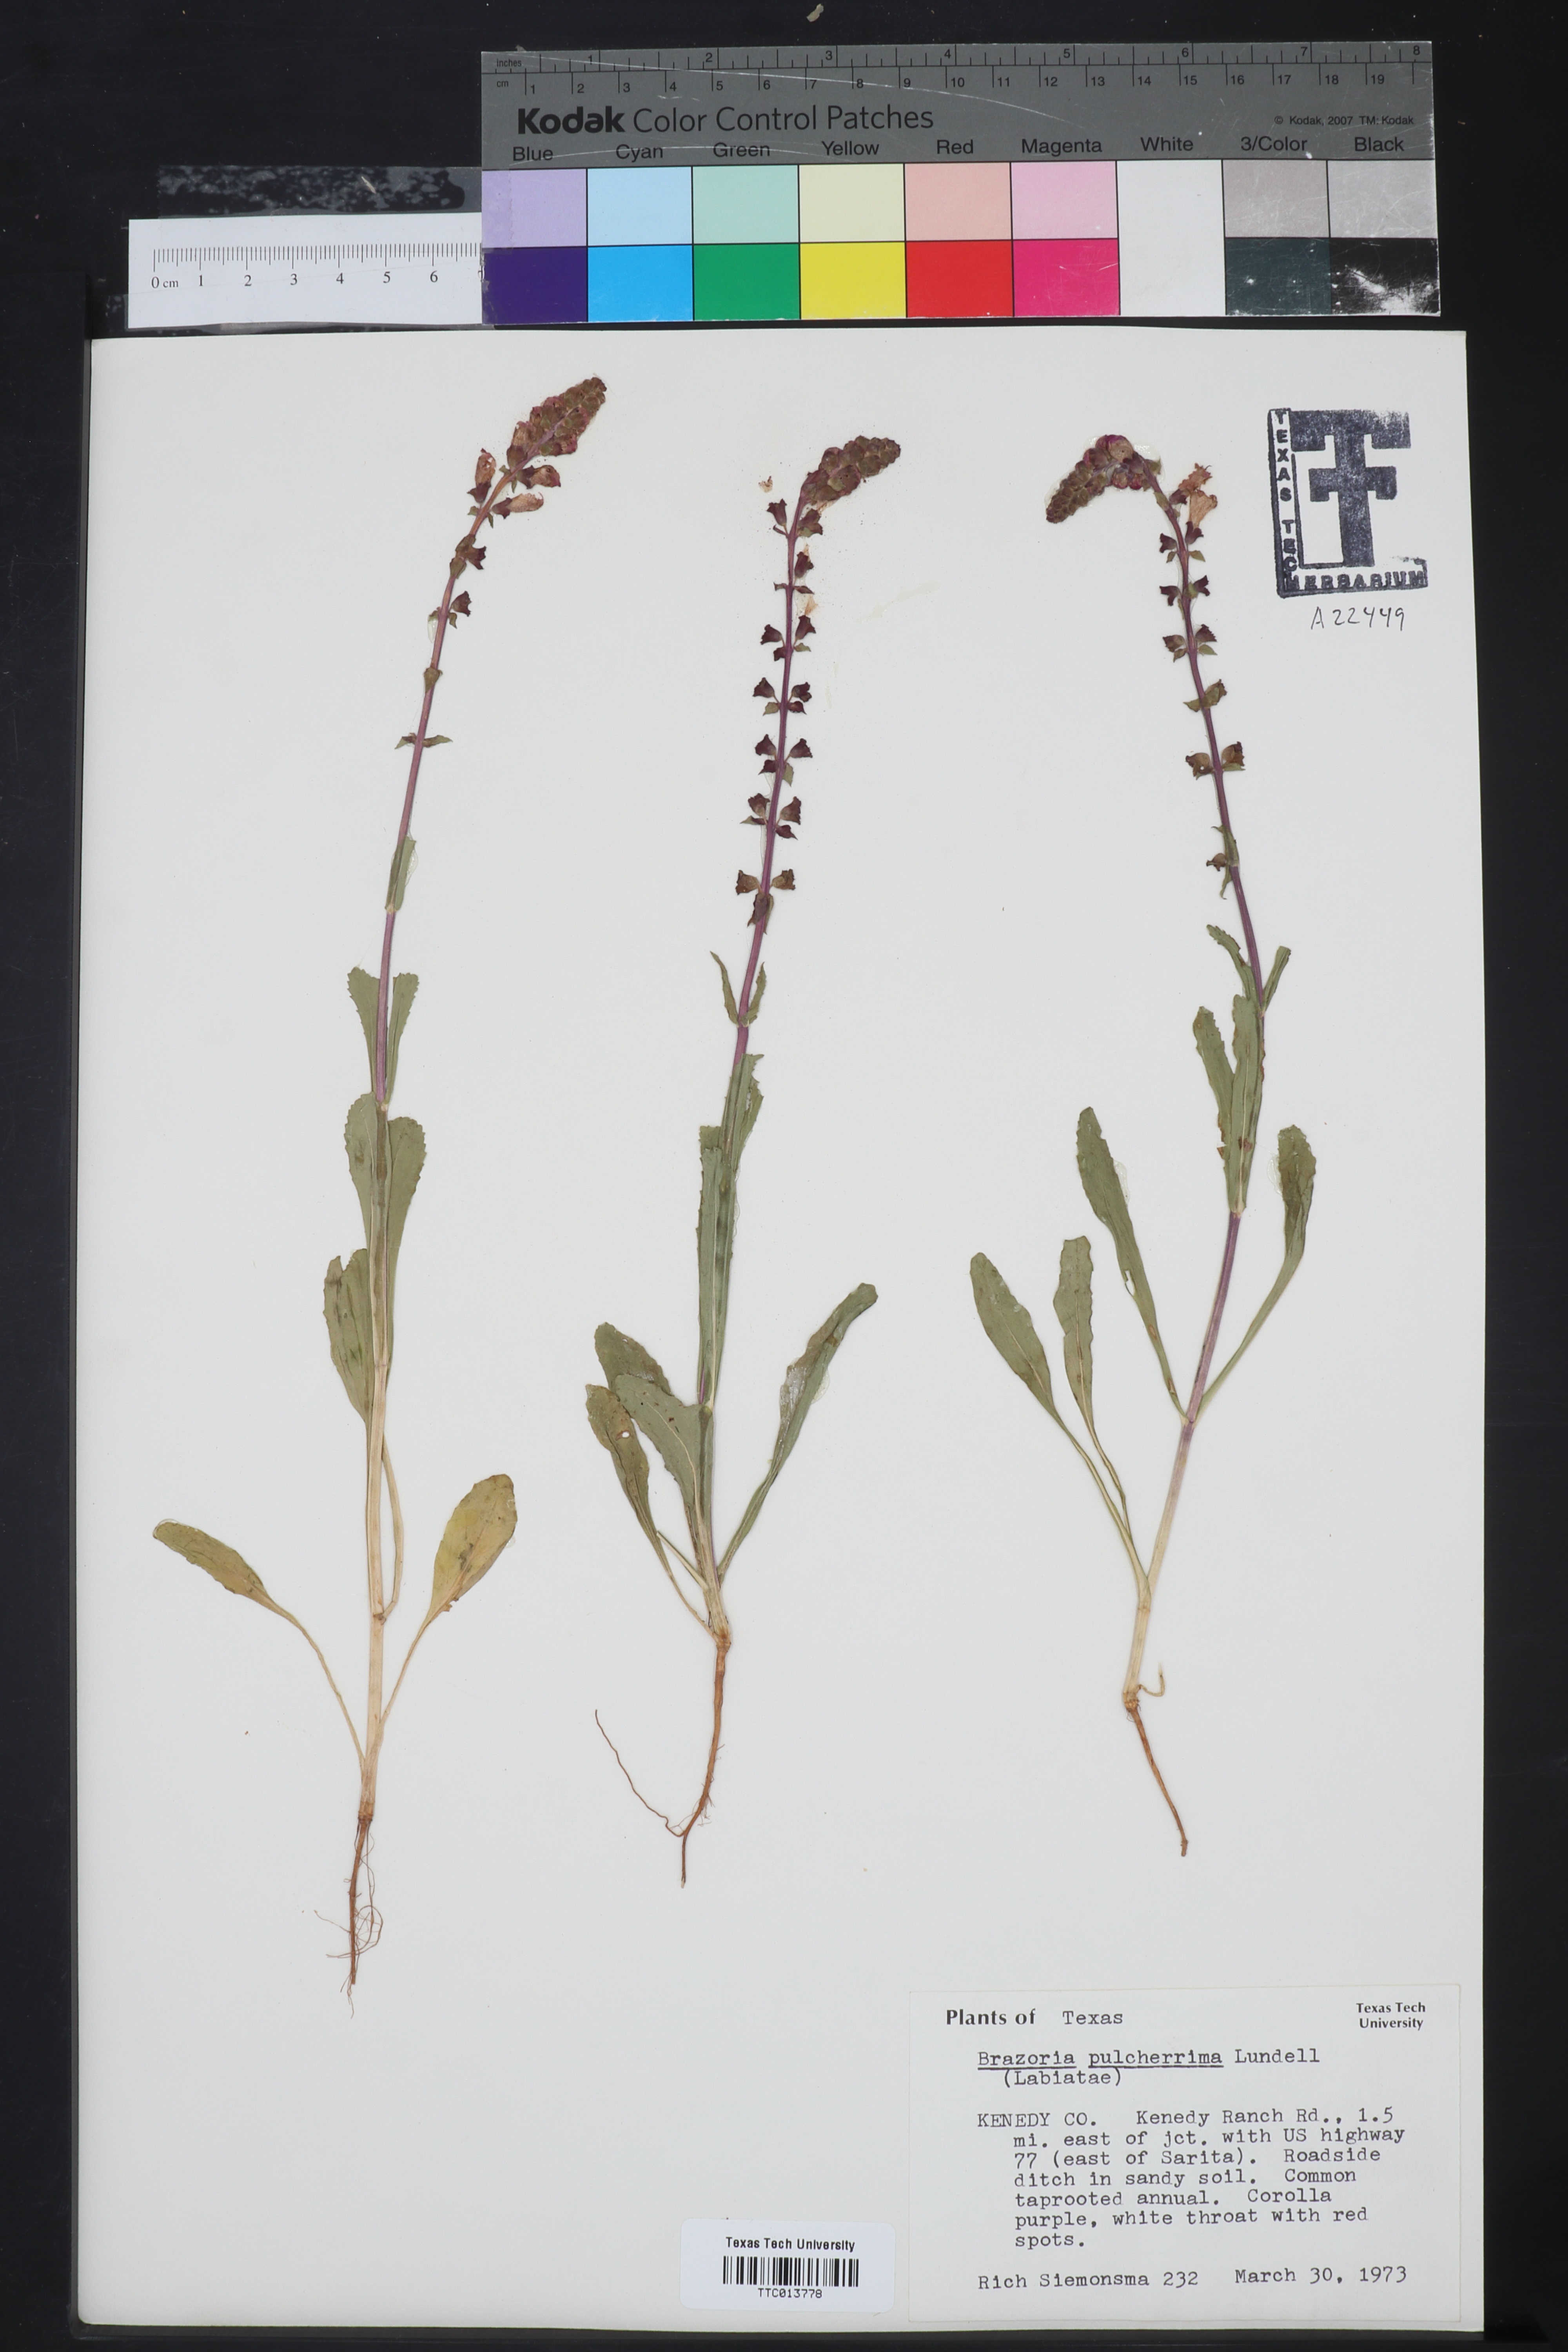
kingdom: Plantae
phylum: Tracheophyta
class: Magnoliopsida
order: Lamiales
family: Lamiaceae
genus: Brazoria
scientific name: Brazoria truncata
